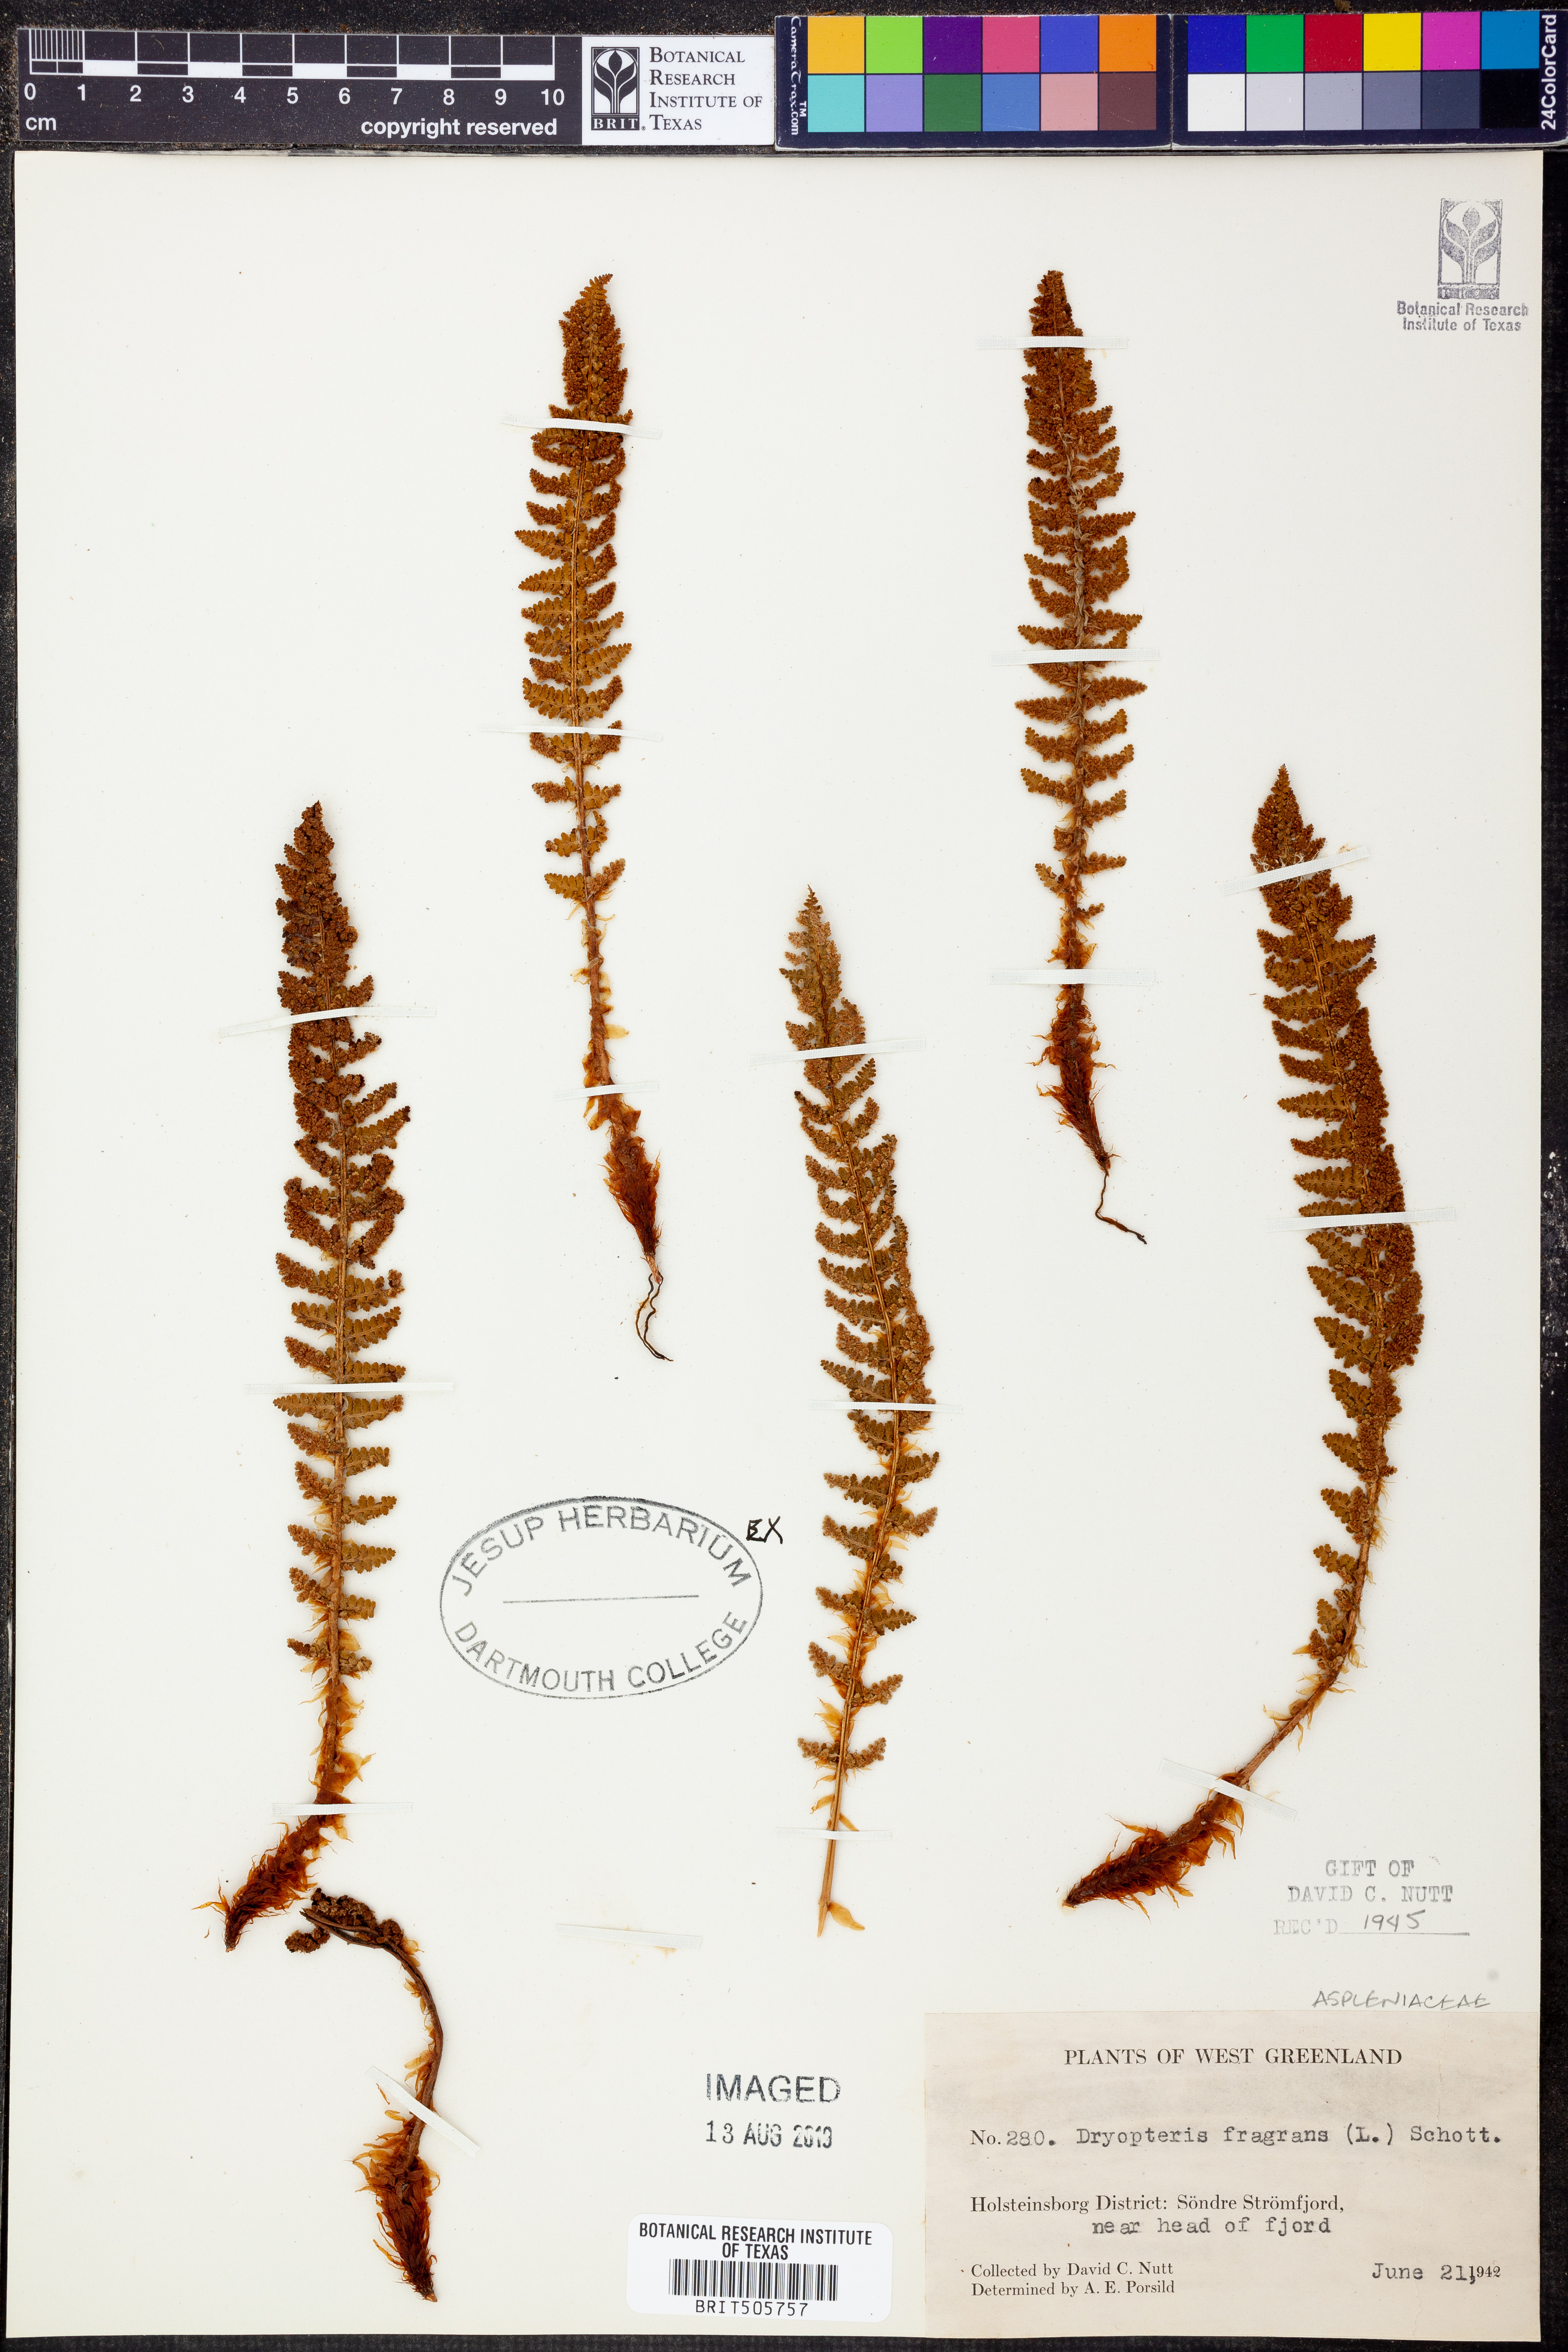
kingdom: Plantae
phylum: Tracheophyta
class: Polypodiopsida
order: Polypodiales
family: Dryopteridaceae
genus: Dryopteris
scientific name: Dryopteris fragrans
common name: Fragrant wood fern
